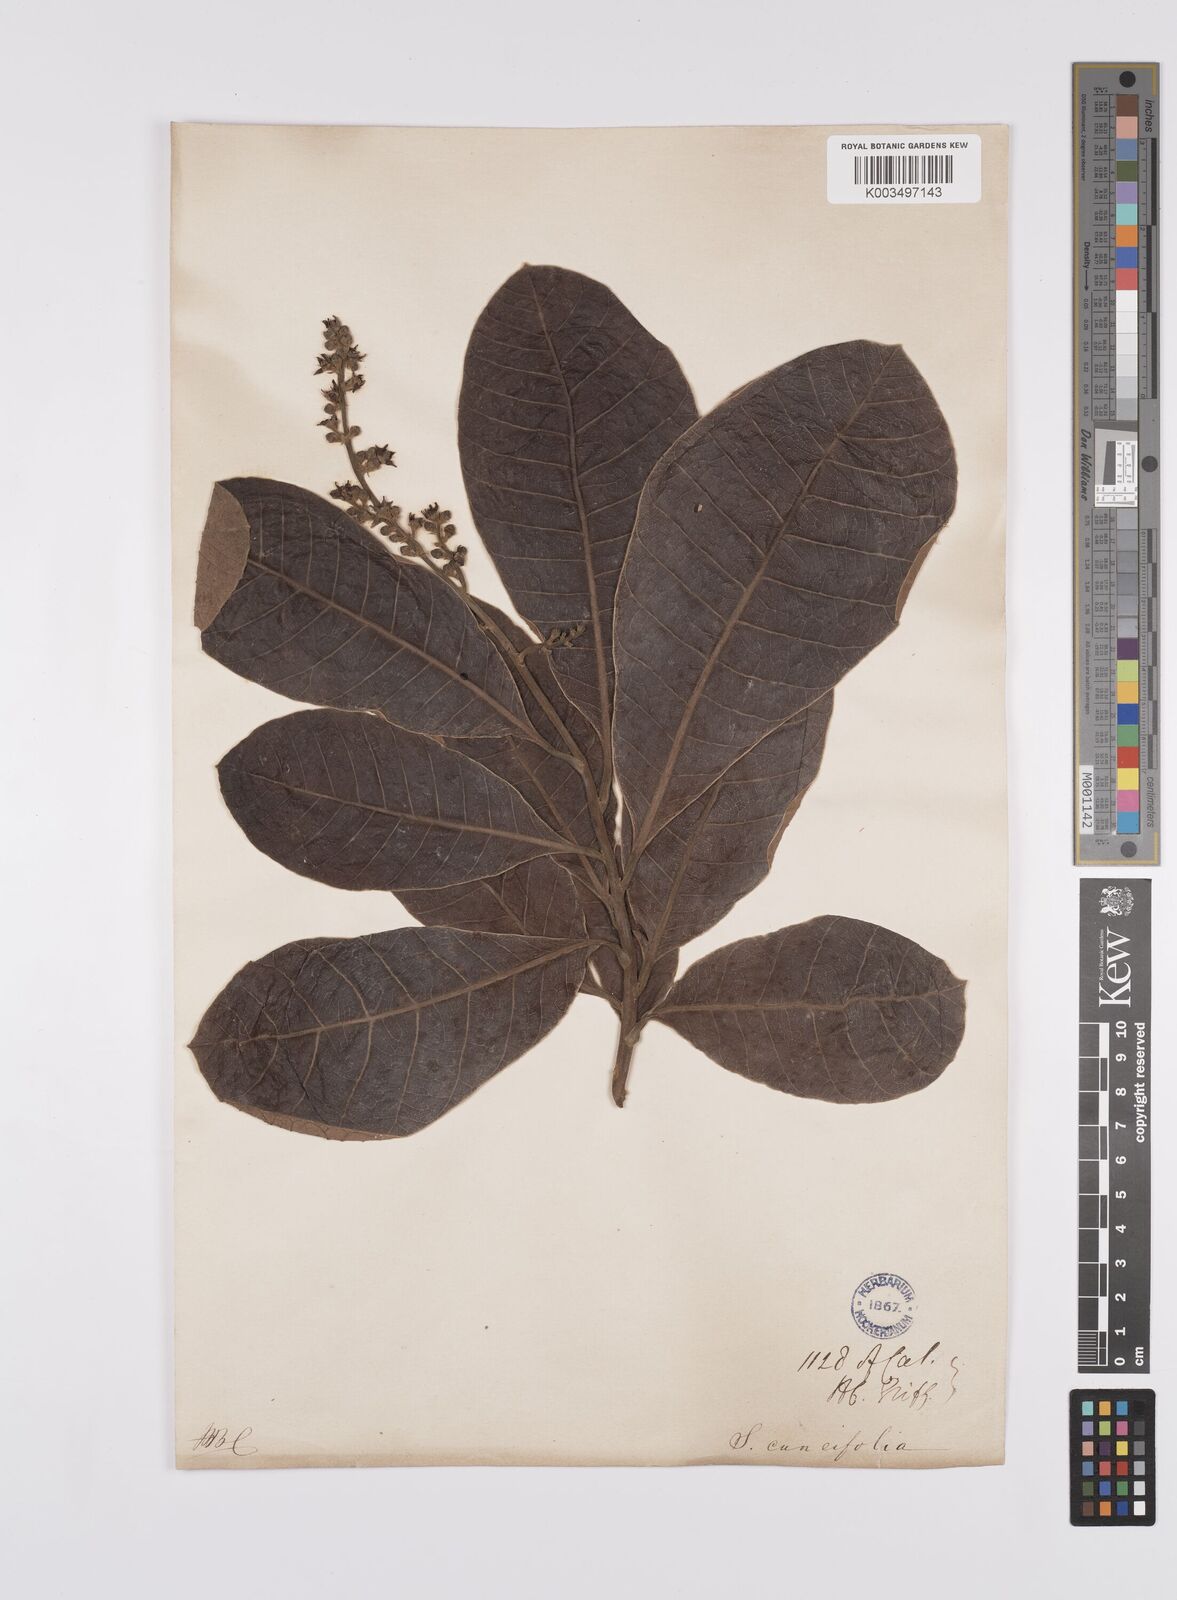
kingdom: Plantae
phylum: Tracheophyta
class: Magnoliopsida
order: Sapindales
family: Anacardiaceae
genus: Semecarpus
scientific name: Semecarpus
